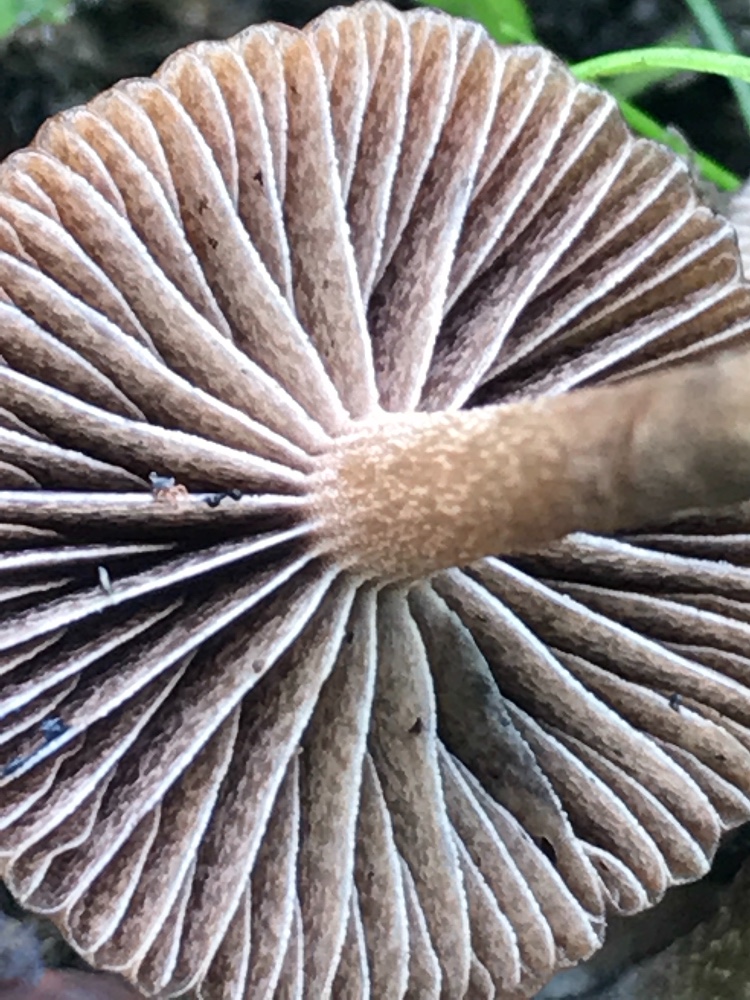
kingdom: Fungi
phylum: Basidiomycota
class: Agaricomycetes
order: Agaricales
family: Strophariaceae
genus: Deconica
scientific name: Deconica
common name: stråhat
